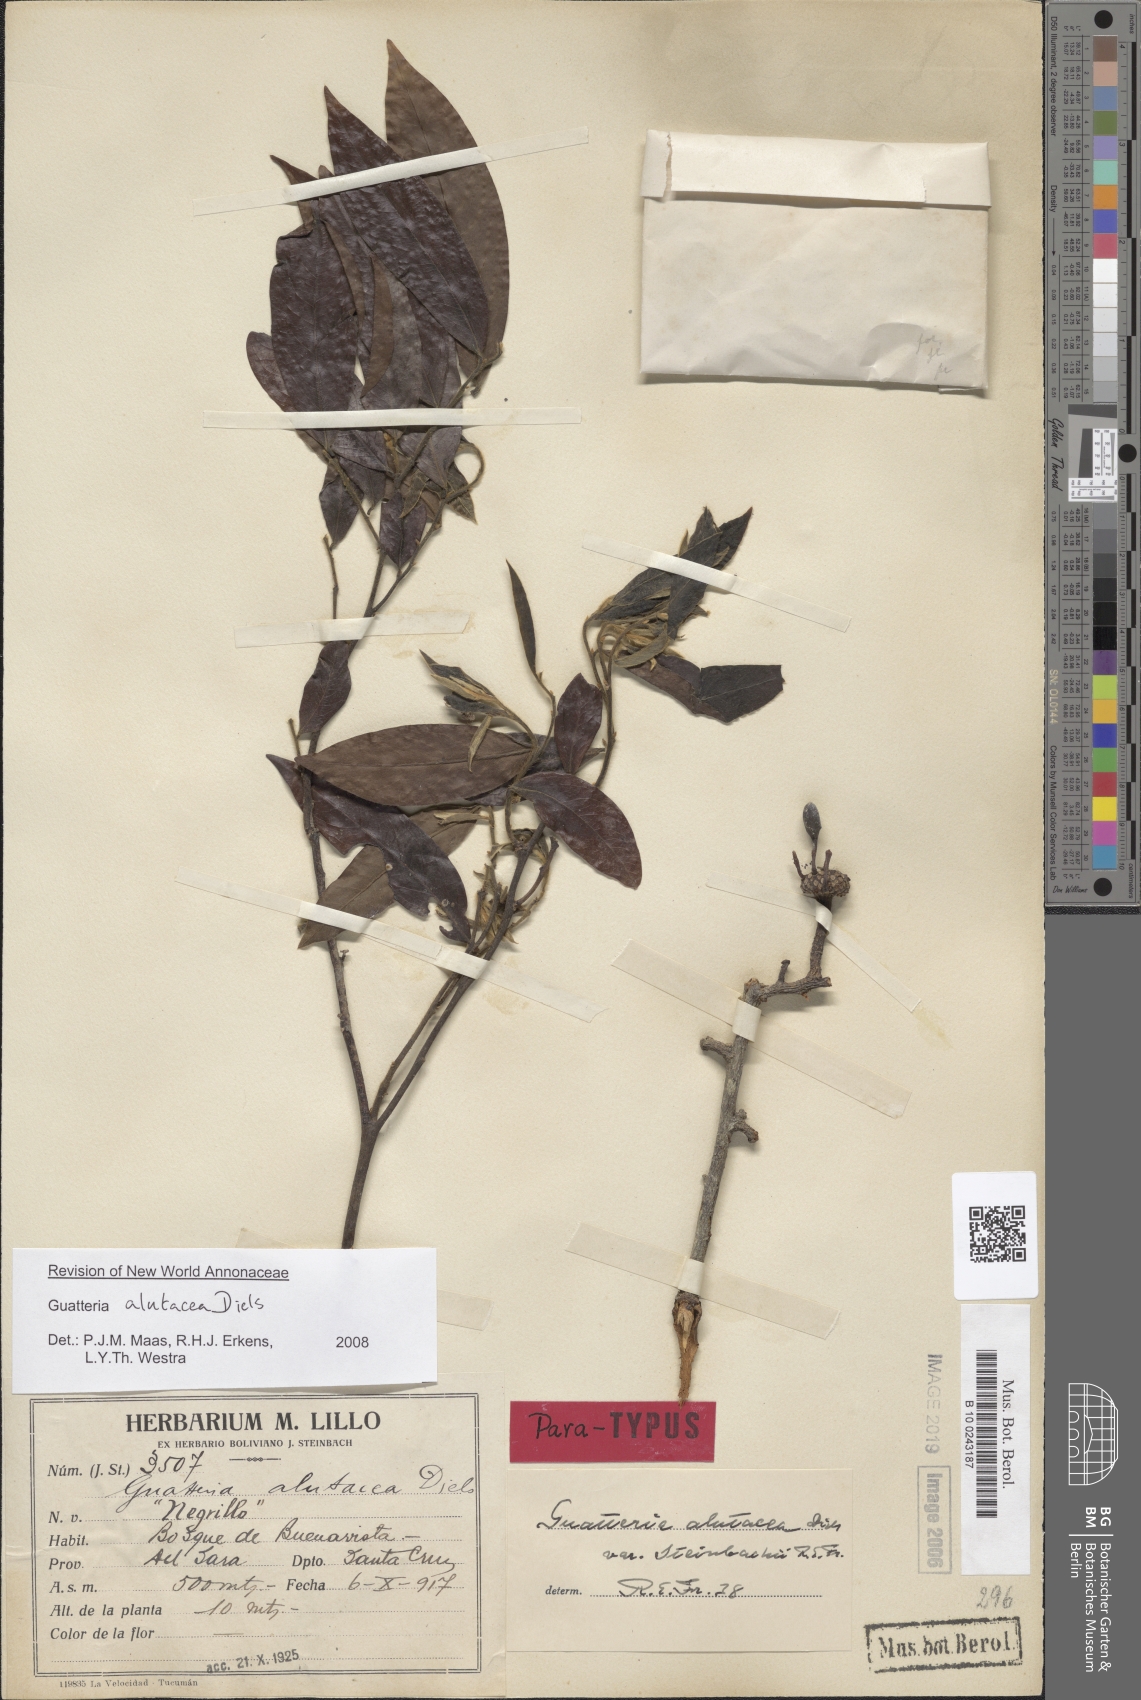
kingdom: Plantae
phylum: Tracheophyta
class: Magnoliopsida
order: Magnoliales
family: Annonaceae
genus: Guatteria
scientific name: Guatteria alutacea
